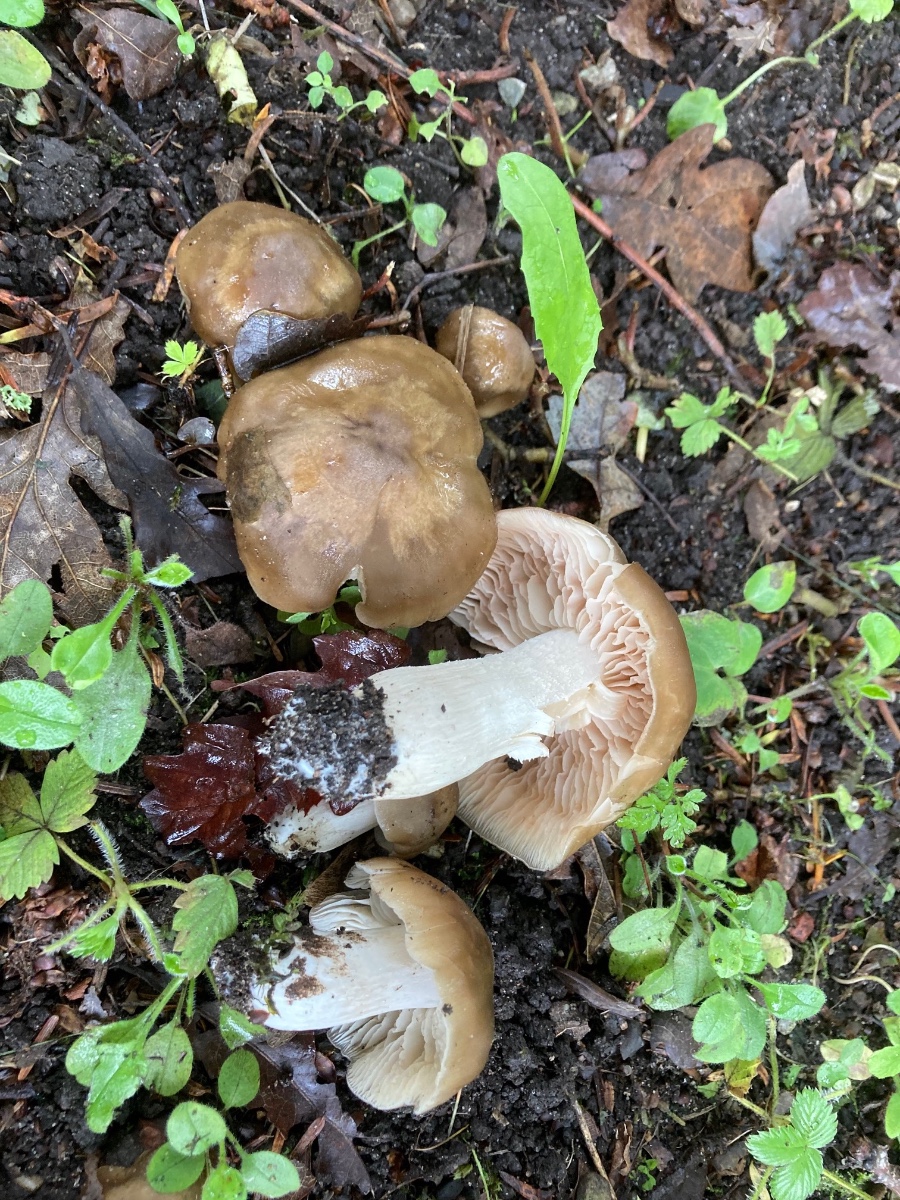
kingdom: Fungi
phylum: Basidiomycota
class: Agaricomycetes
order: Agaricales
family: Entolomataceae
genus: Entoloma
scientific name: Entoloma lividoalbum
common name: lysstokket rødblad
